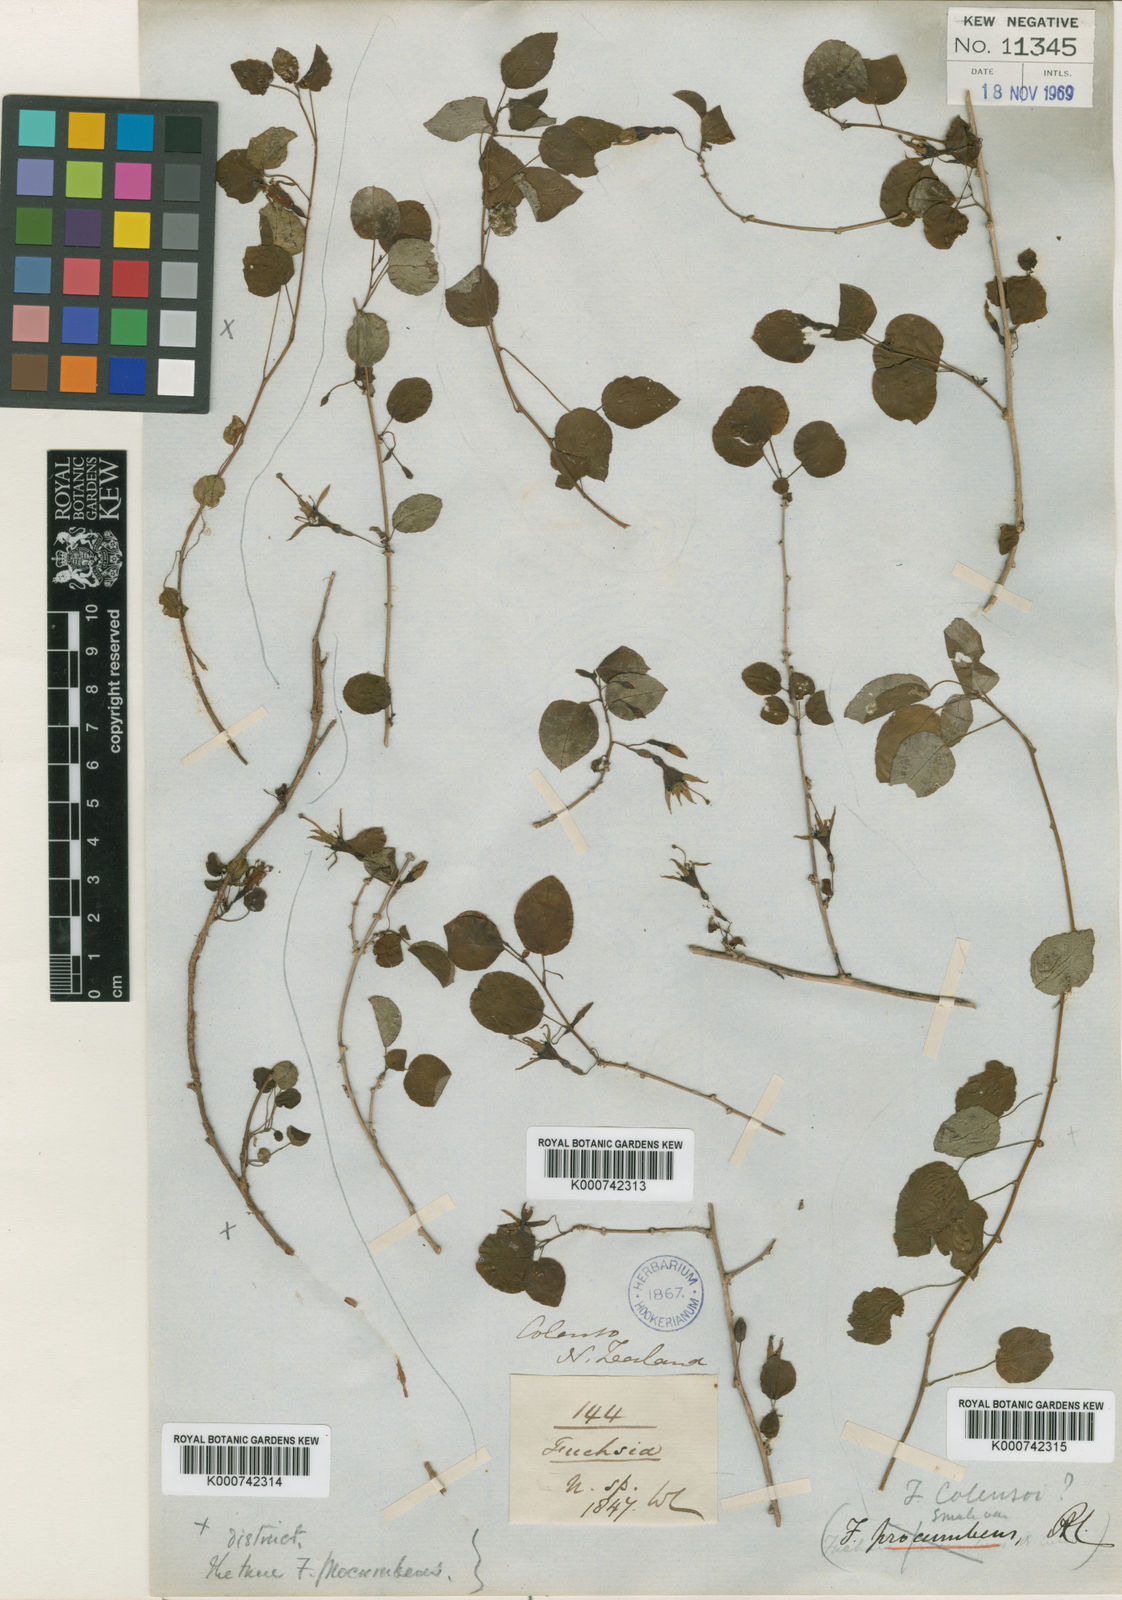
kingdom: Plantae
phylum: Tracheophyta
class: Magnoliopsida
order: Myrtales
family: Onagraceae
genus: Fuchsia
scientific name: Fuchsia colensoi
